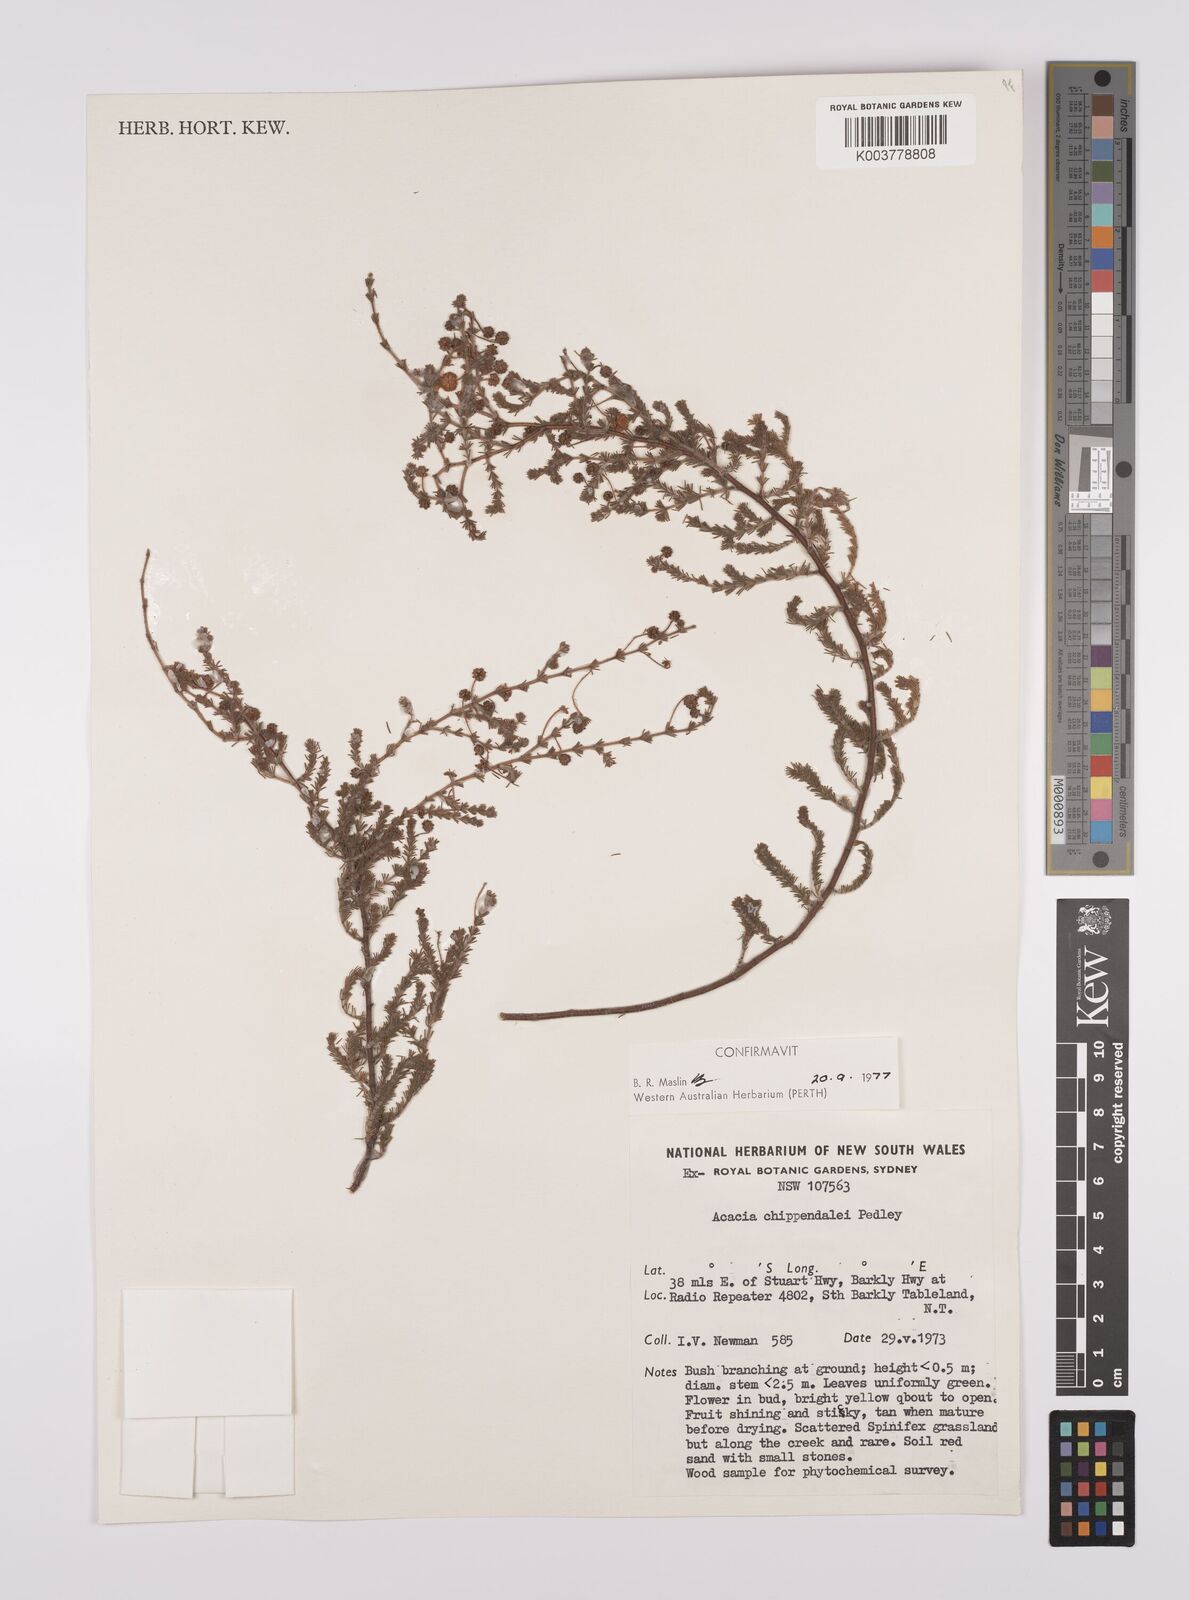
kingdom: Plantae
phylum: Tracheophyta
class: Magnoliopsida
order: Fabales
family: Fabaceae
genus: Acacia
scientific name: Acacia chippendalei
